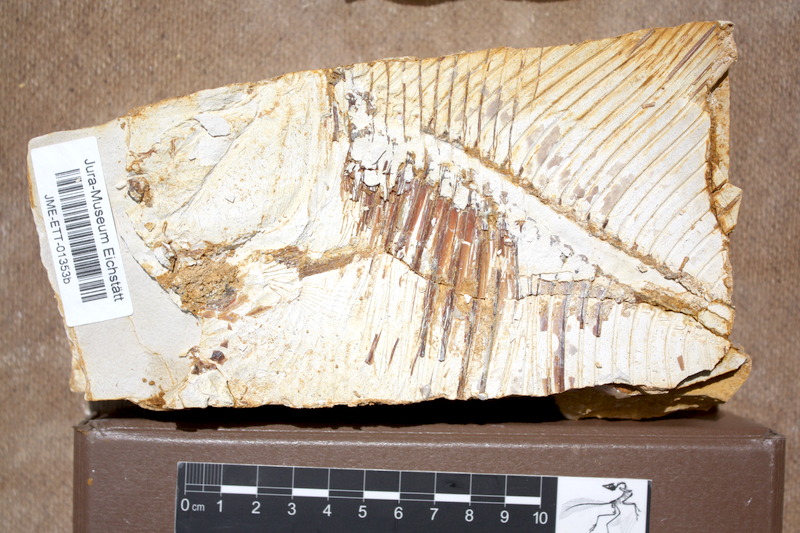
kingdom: Animalia
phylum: Chordata
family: Pycnodontidae
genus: Proscinetes
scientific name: Proscinetes elegans
